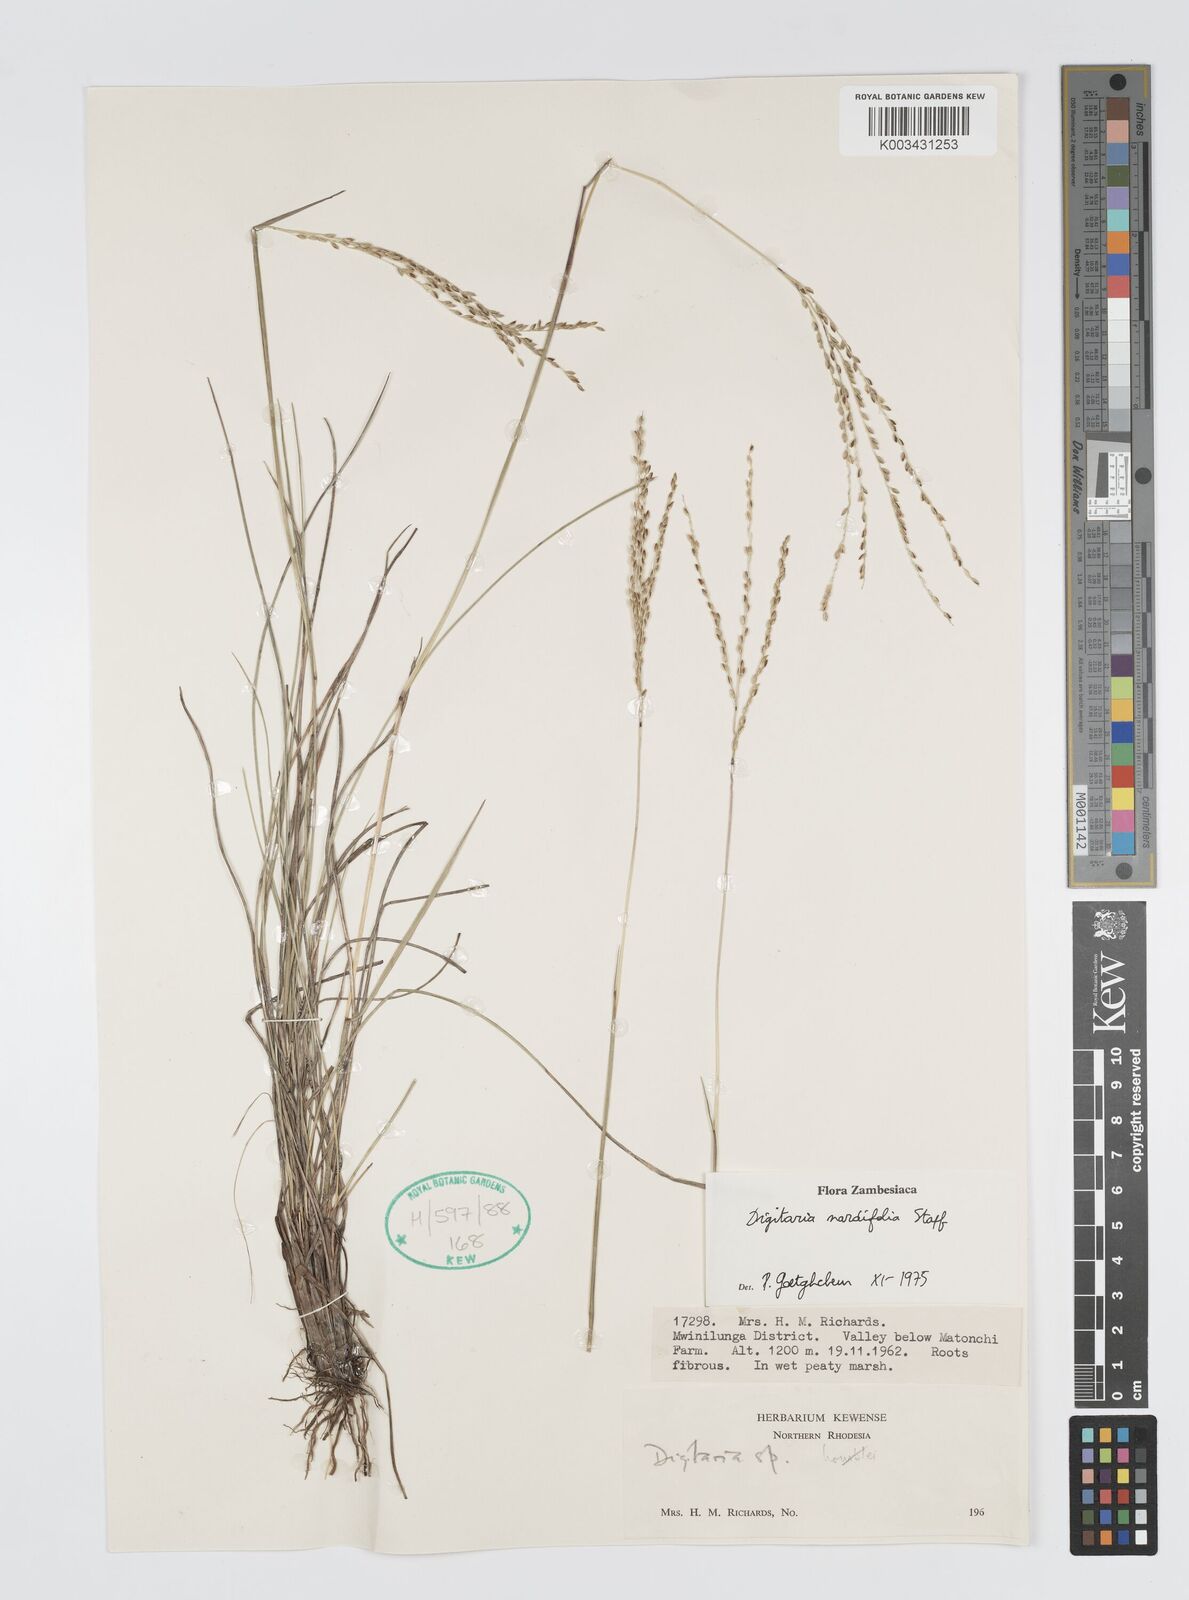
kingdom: Plantae
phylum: Tracheophyta
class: Liliopsida
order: Poales
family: Poaceae
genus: Digitaria
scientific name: Digitaria setifolia
